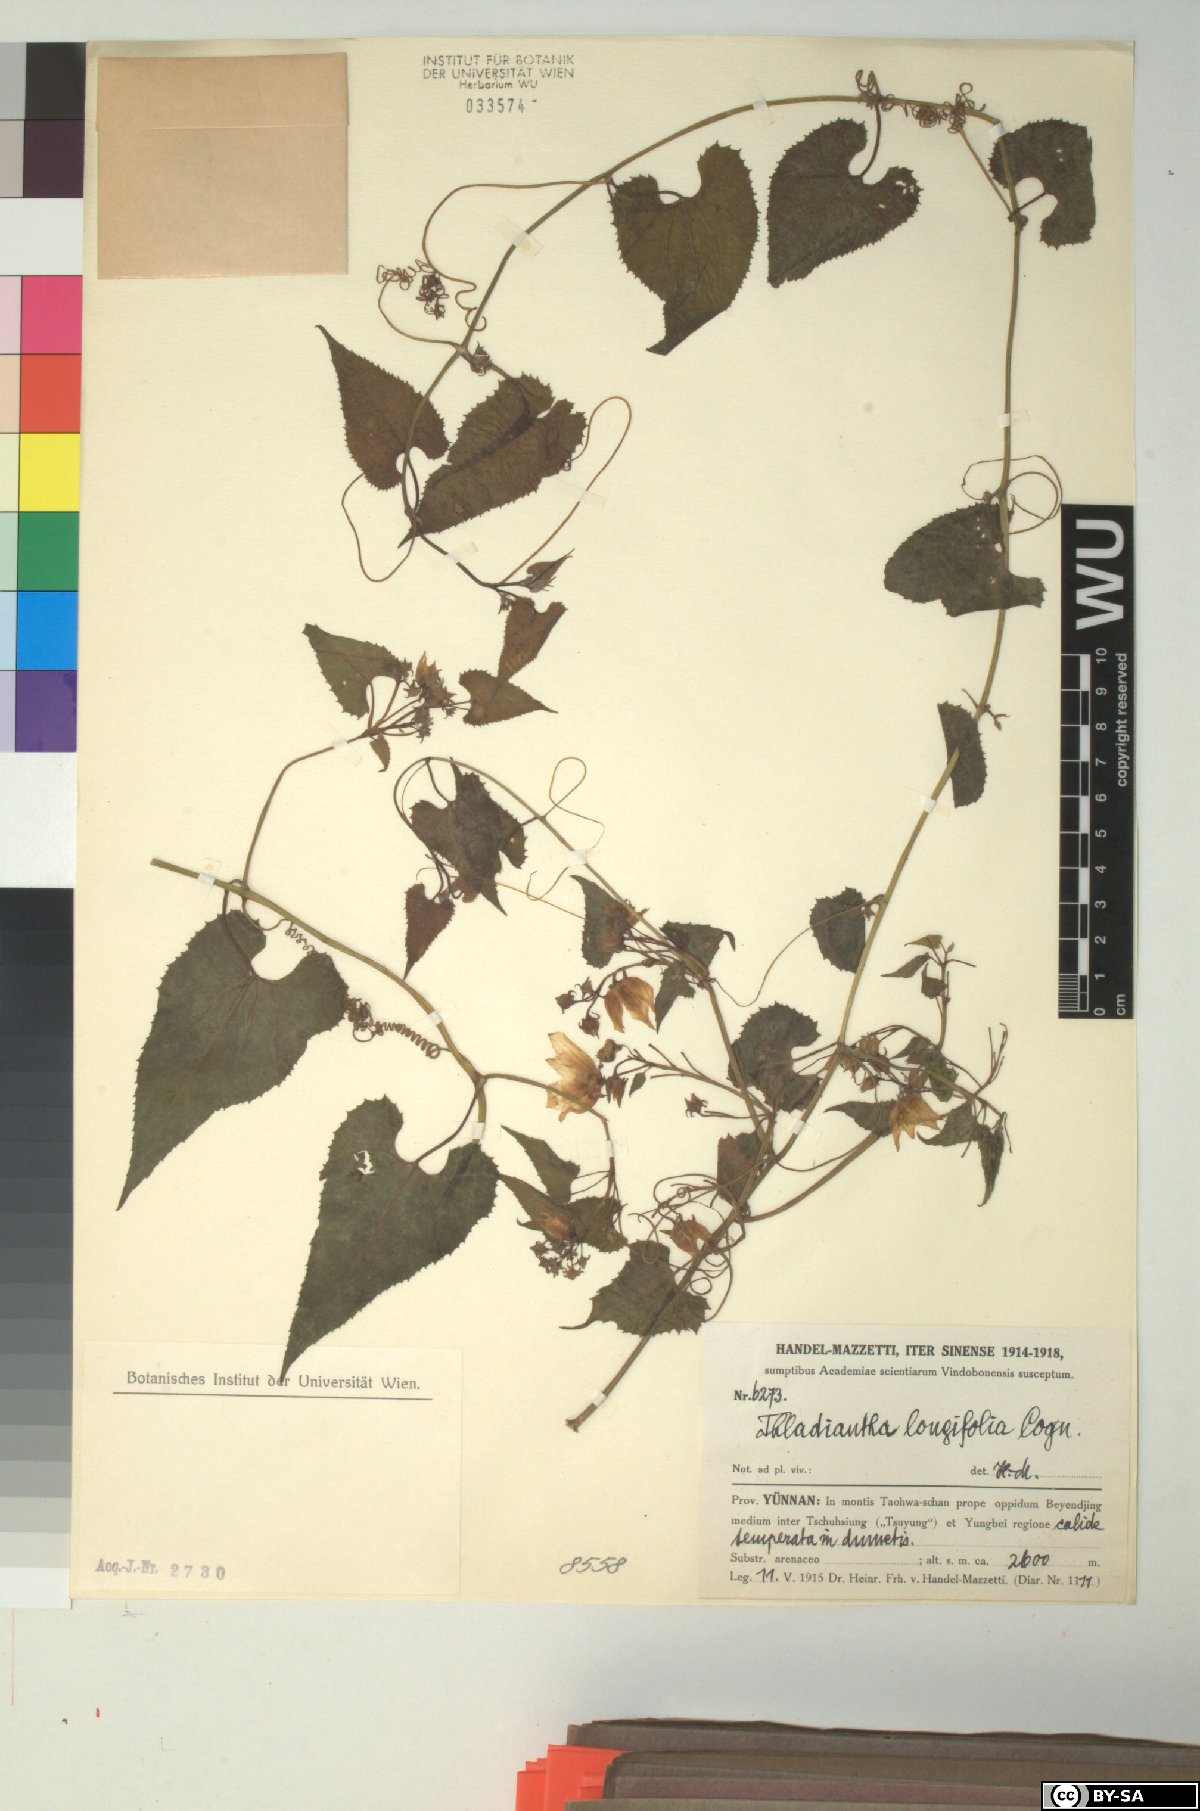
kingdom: Plantae
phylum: Tracheophyta
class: Magnoliopsida
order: Cucurbitales
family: Cucurbitaceae
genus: Thladiantha
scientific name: Thladiantha longifolia
